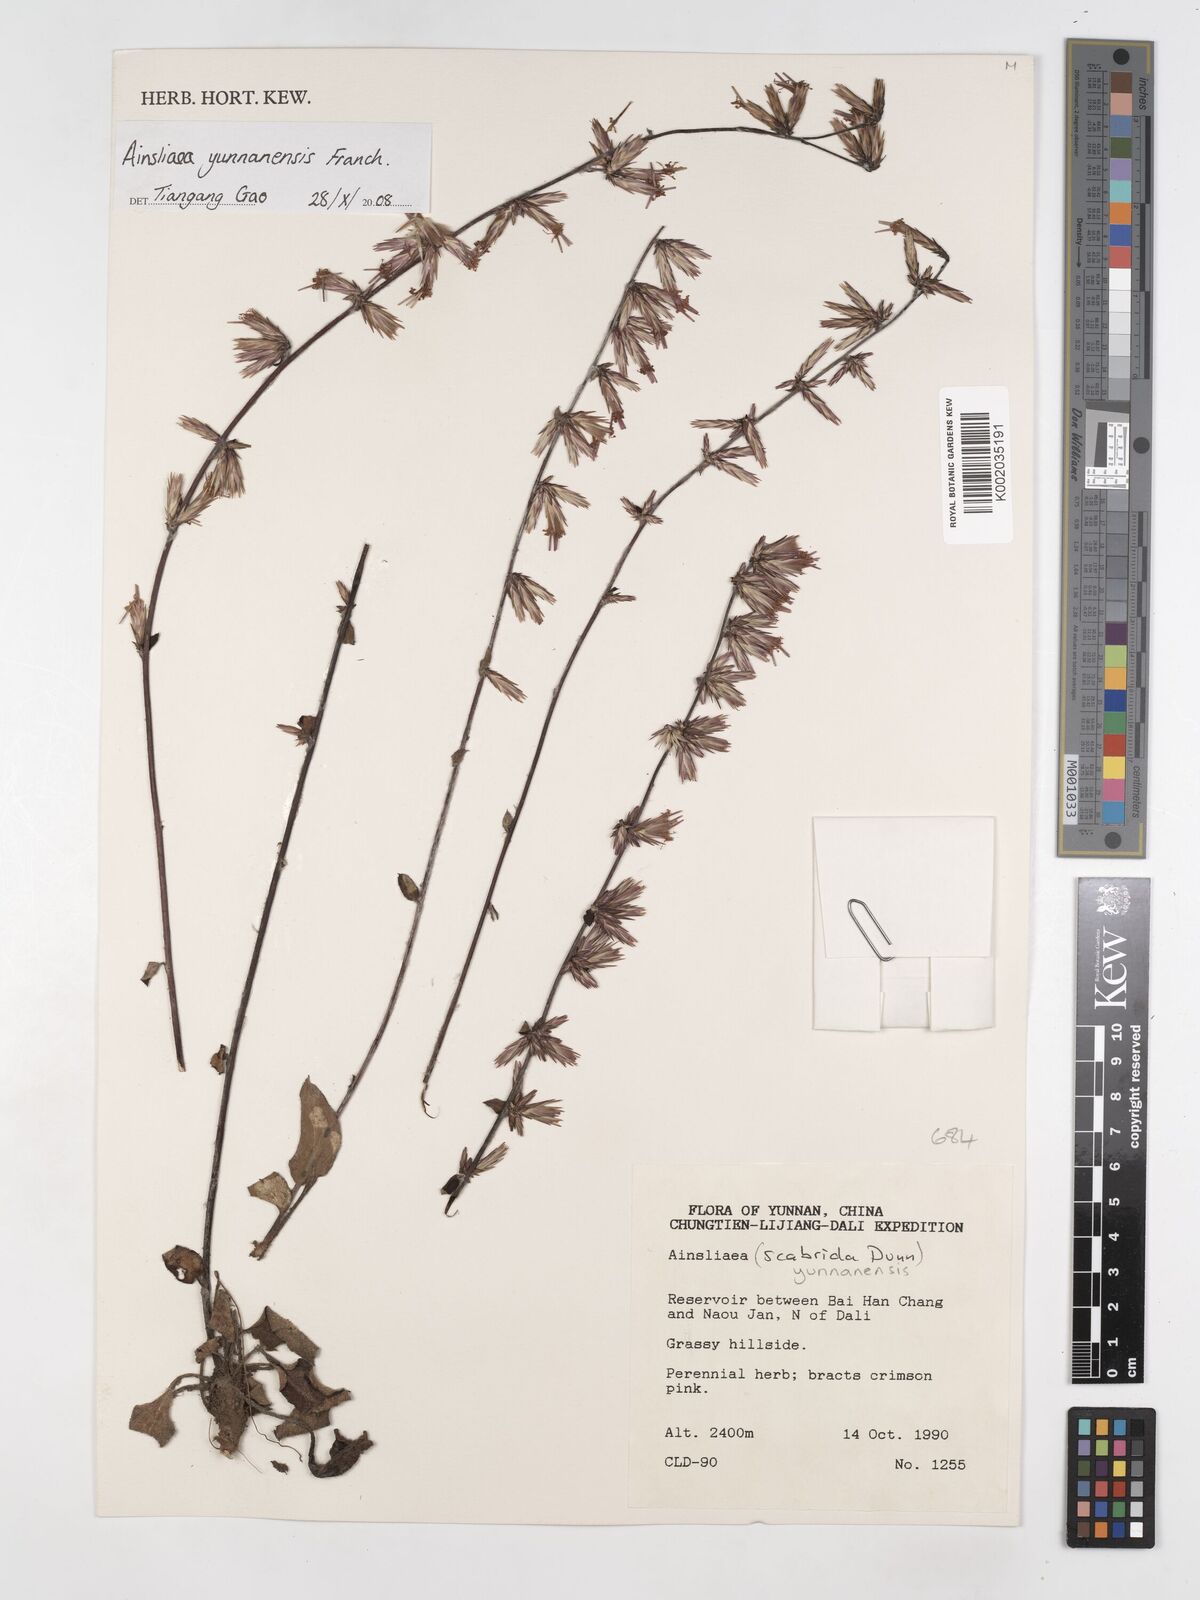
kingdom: Plantae
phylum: Tracheophyta
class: Magnoliopsida
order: Asterales
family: Asteraceae
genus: Ainsliaea
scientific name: Ainsliaea yunnanensis
